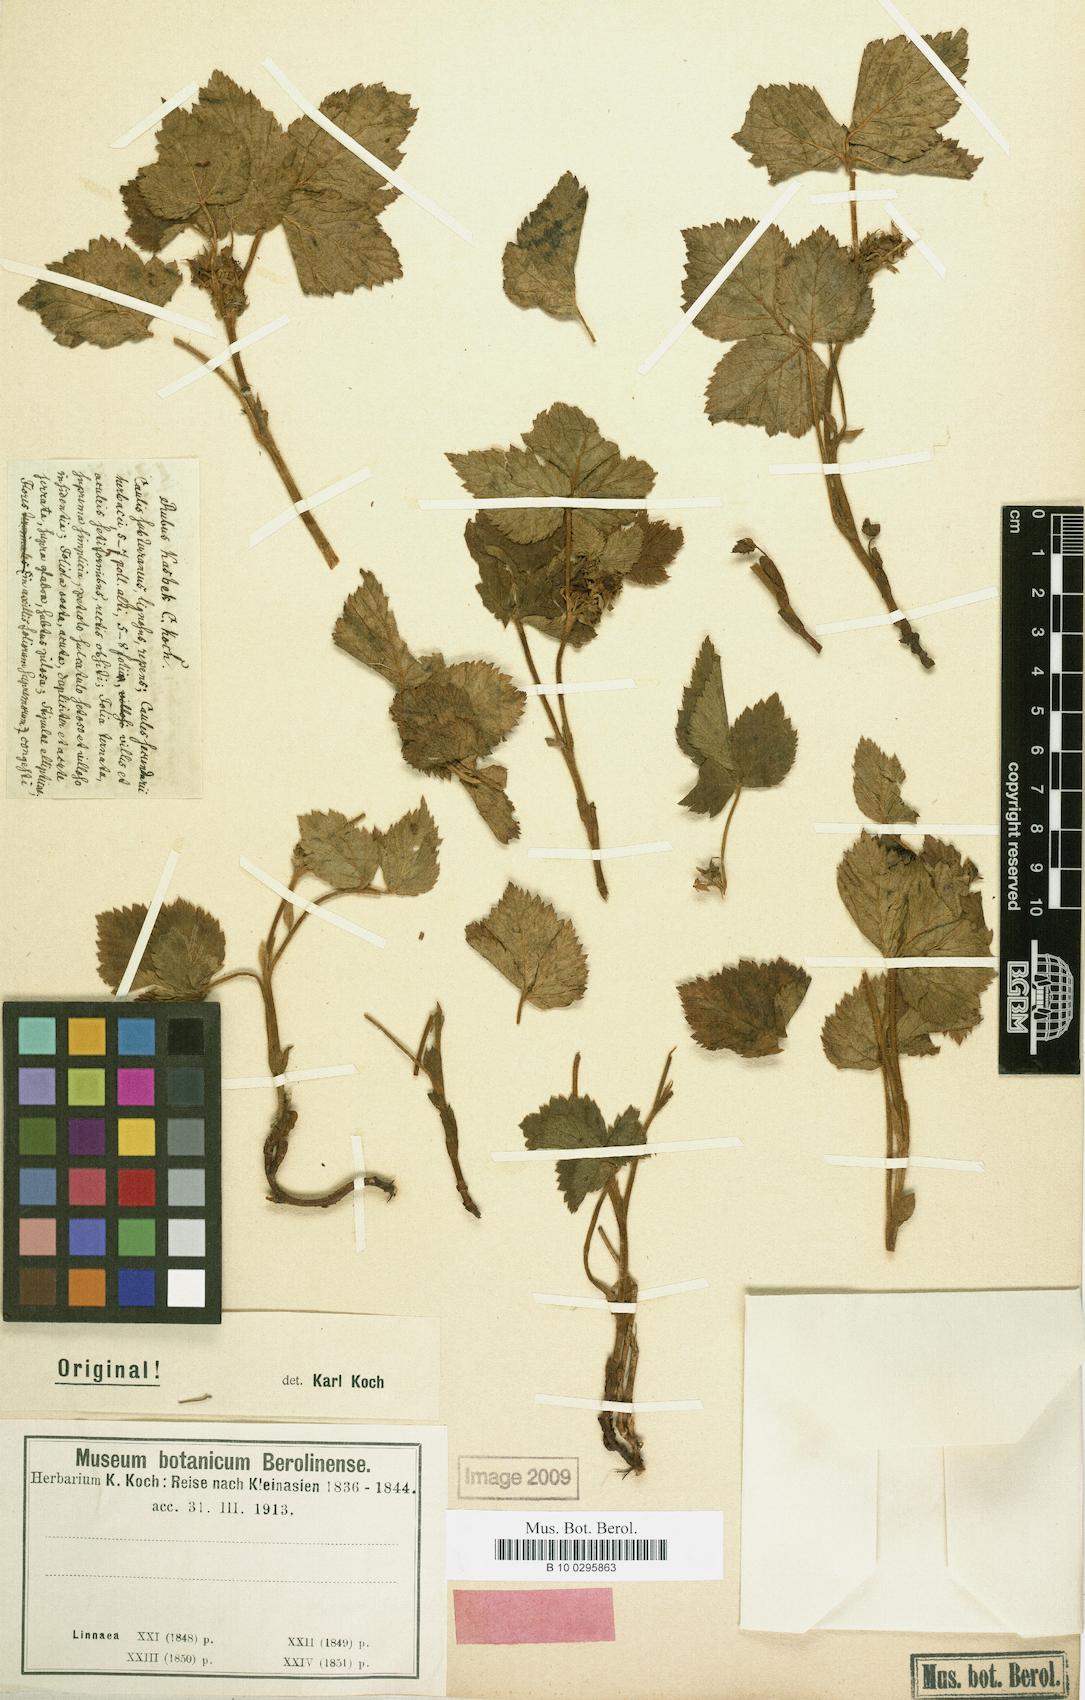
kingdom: Plantae
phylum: Tracheophyta
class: Magnoliopsida
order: Rosales
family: Rosaceae
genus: Rubus
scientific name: Rubus saxatilis
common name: Stone bramble
